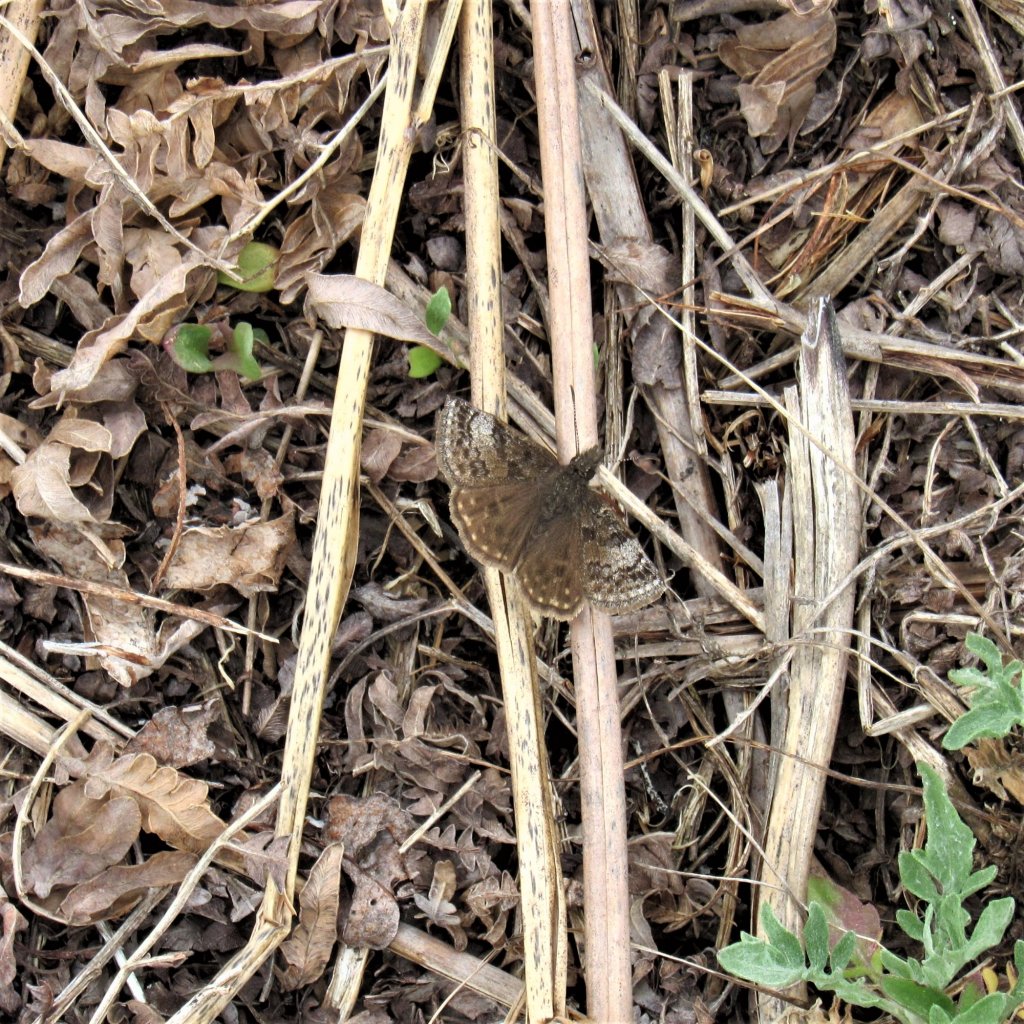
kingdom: Animalia
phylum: Arthropoda
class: Insecta
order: Lepidoptera
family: Hesperiidae
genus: Erynnis
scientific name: Erynnis icelus
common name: Dreamy Duskywing
